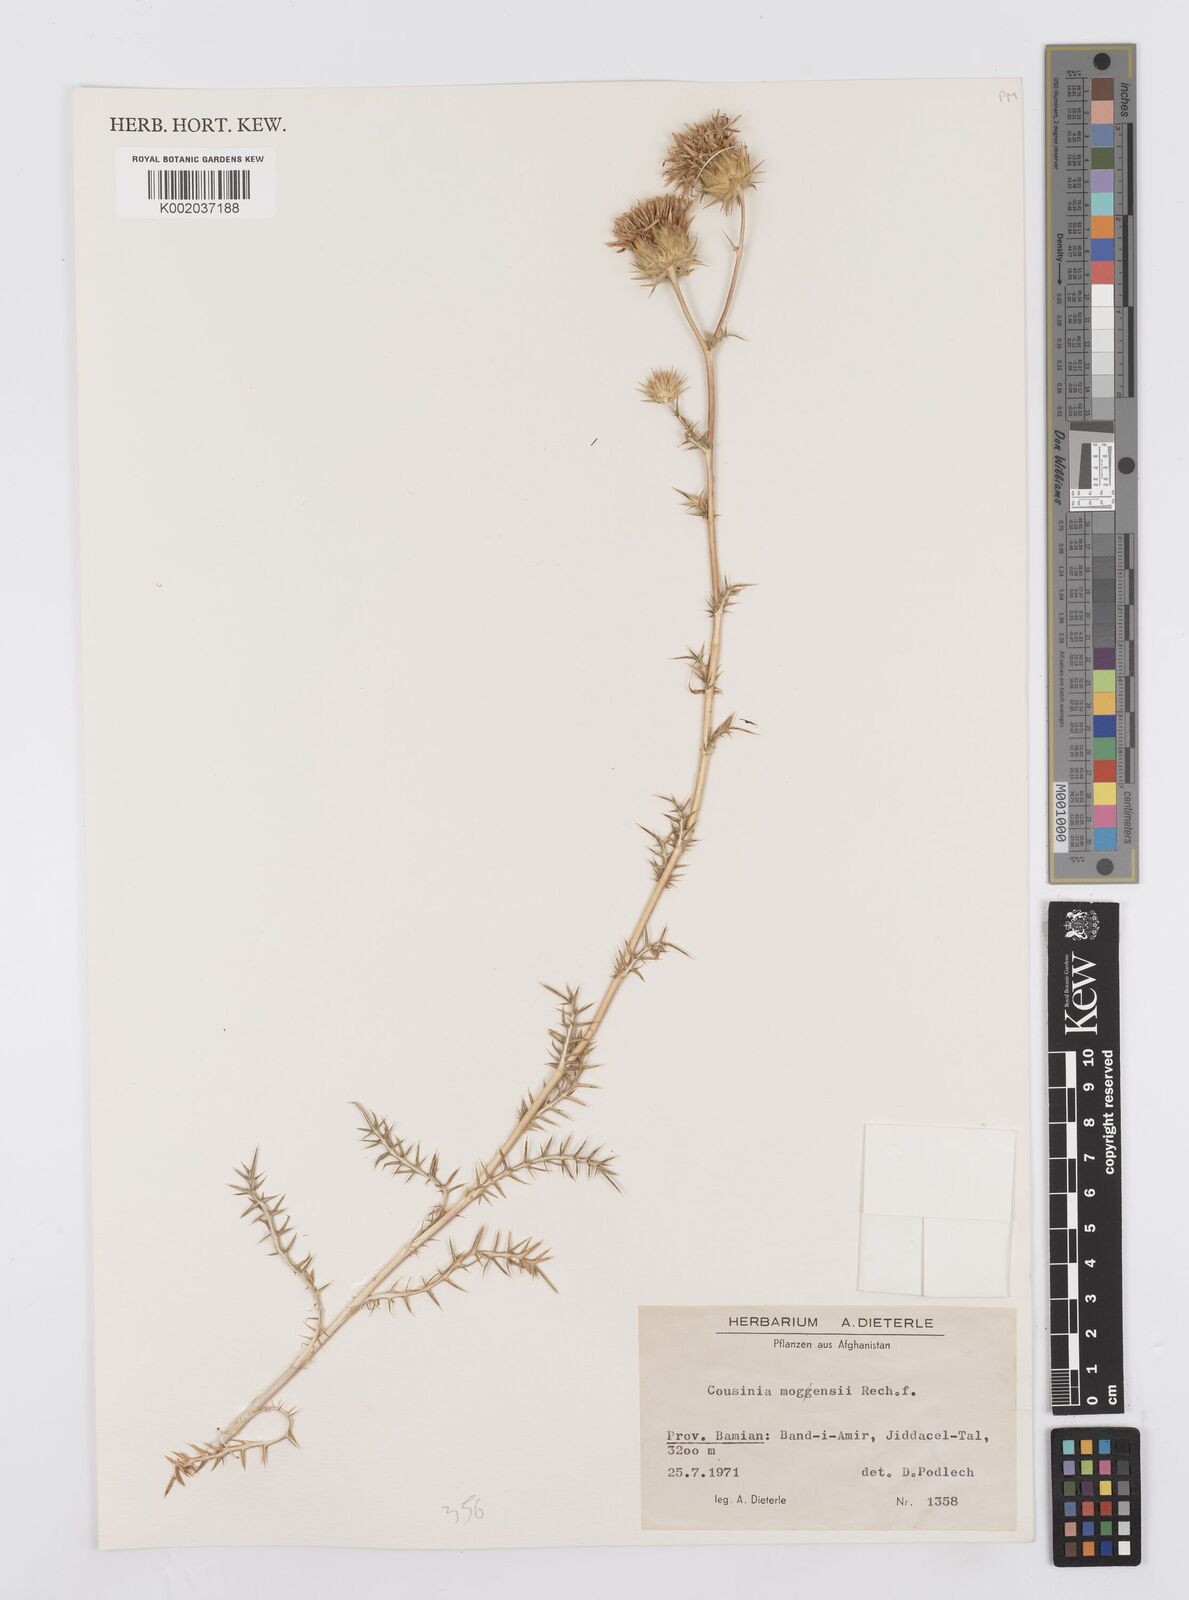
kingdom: Plantae
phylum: Tracheophyta
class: Magnoliopsida
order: Asterales
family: Asteraceae
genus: Cousinia
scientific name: Cousinia mogensii
